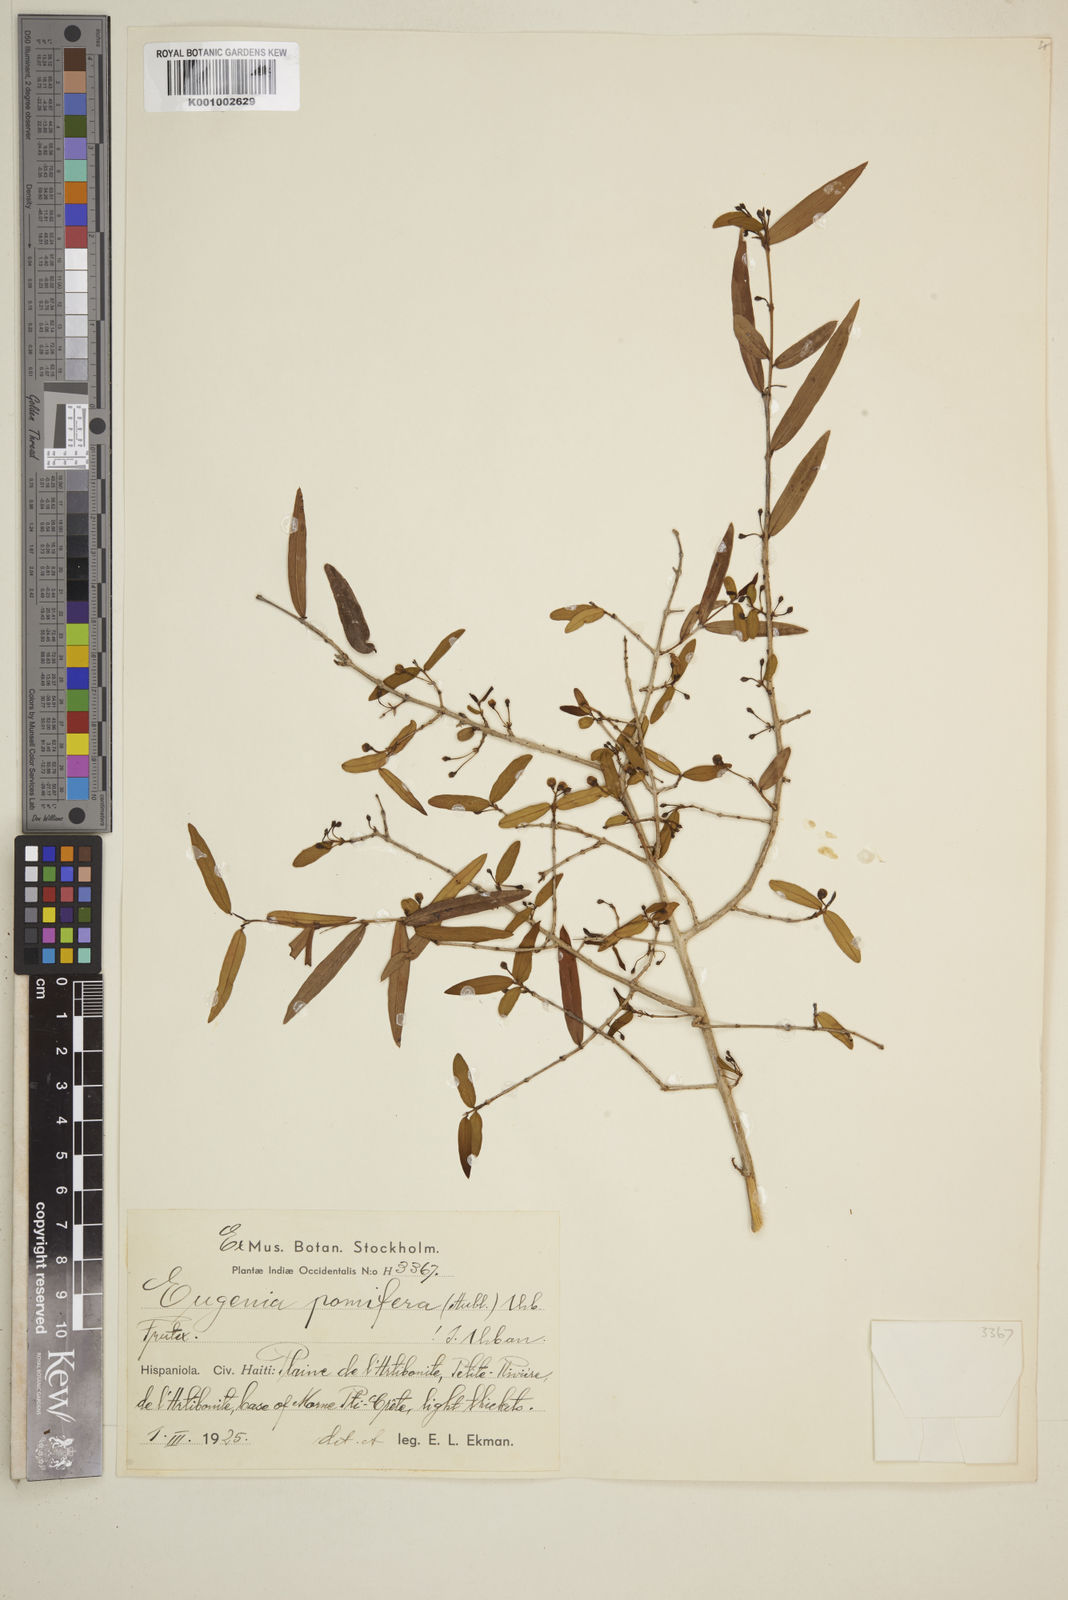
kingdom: Plantae
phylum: Tracheophyta
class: Magnoliopsida
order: Myrtales
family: Myrtaceae
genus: Eugenia
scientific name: Eugenia pomifera
